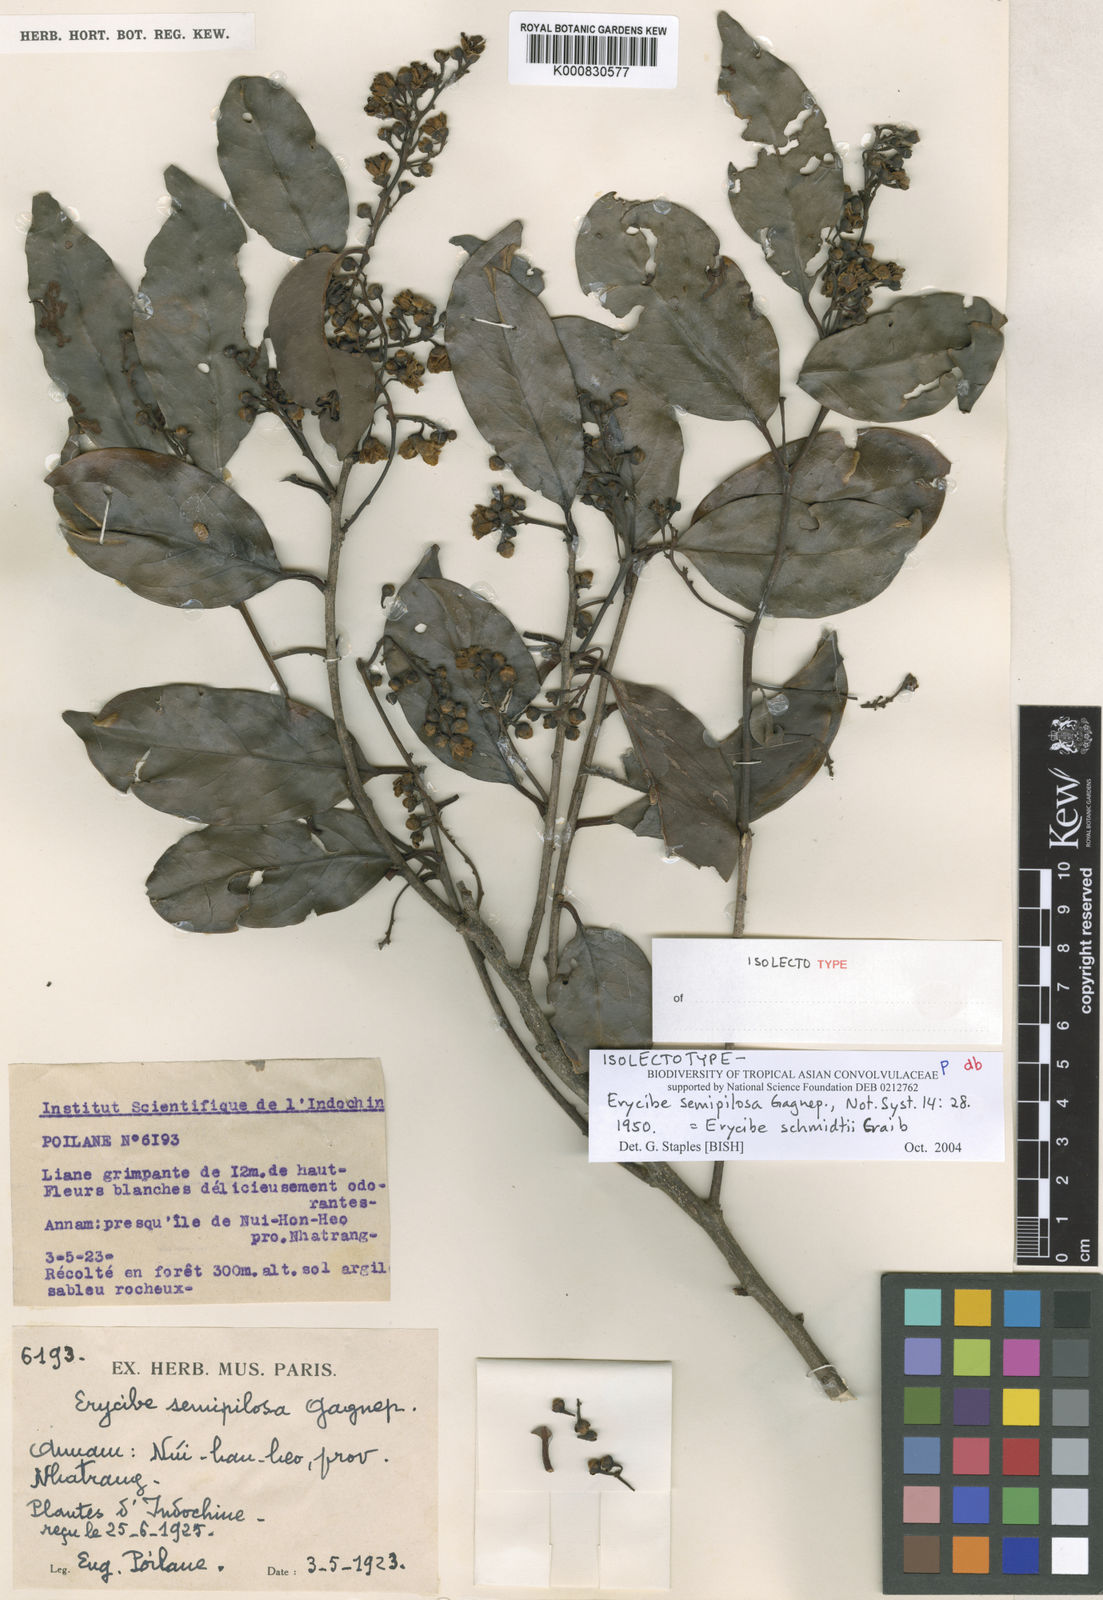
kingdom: Plantae
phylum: Tracheophyta
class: Magnoliopsida
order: Solanales
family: Convolvulaceae
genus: Erycibe
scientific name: Erycibe schmidtii
